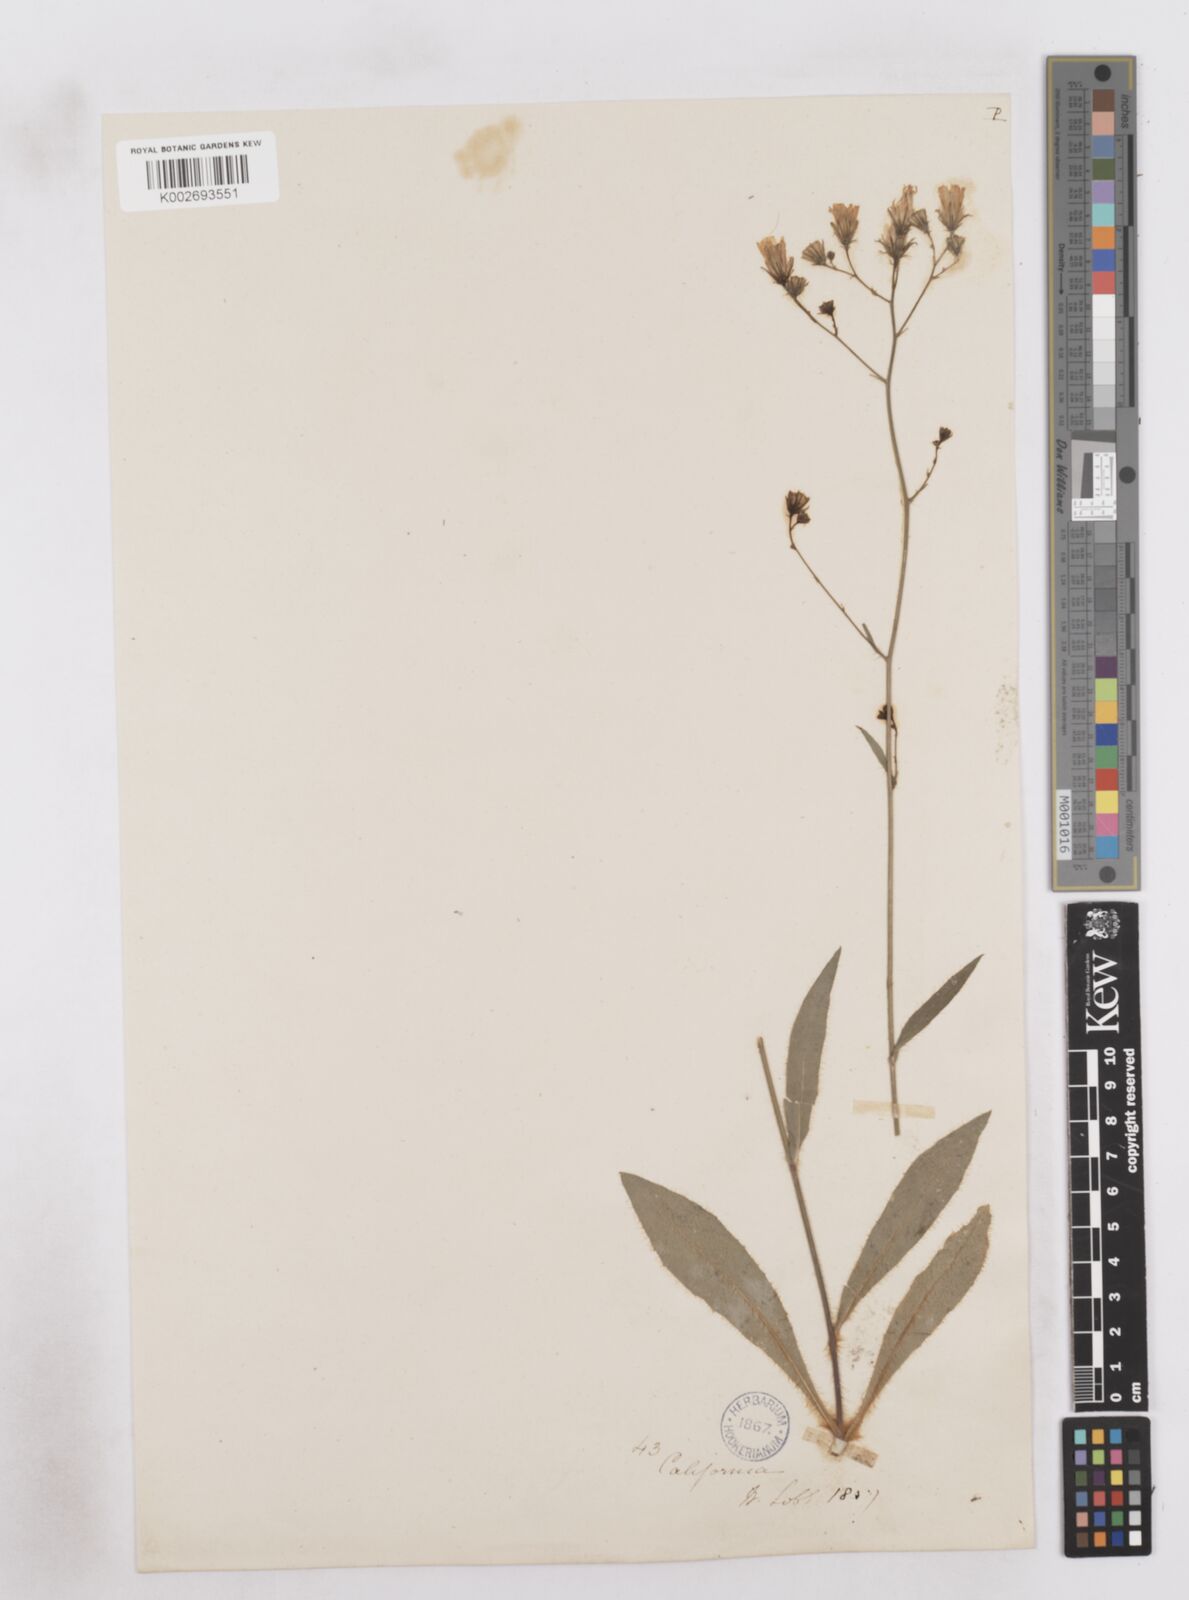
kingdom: Plantae
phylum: Tracheophyta
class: Magnoliopsida
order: Asterales
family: Asteraceae
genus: Hieracium
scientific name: Hieracium
